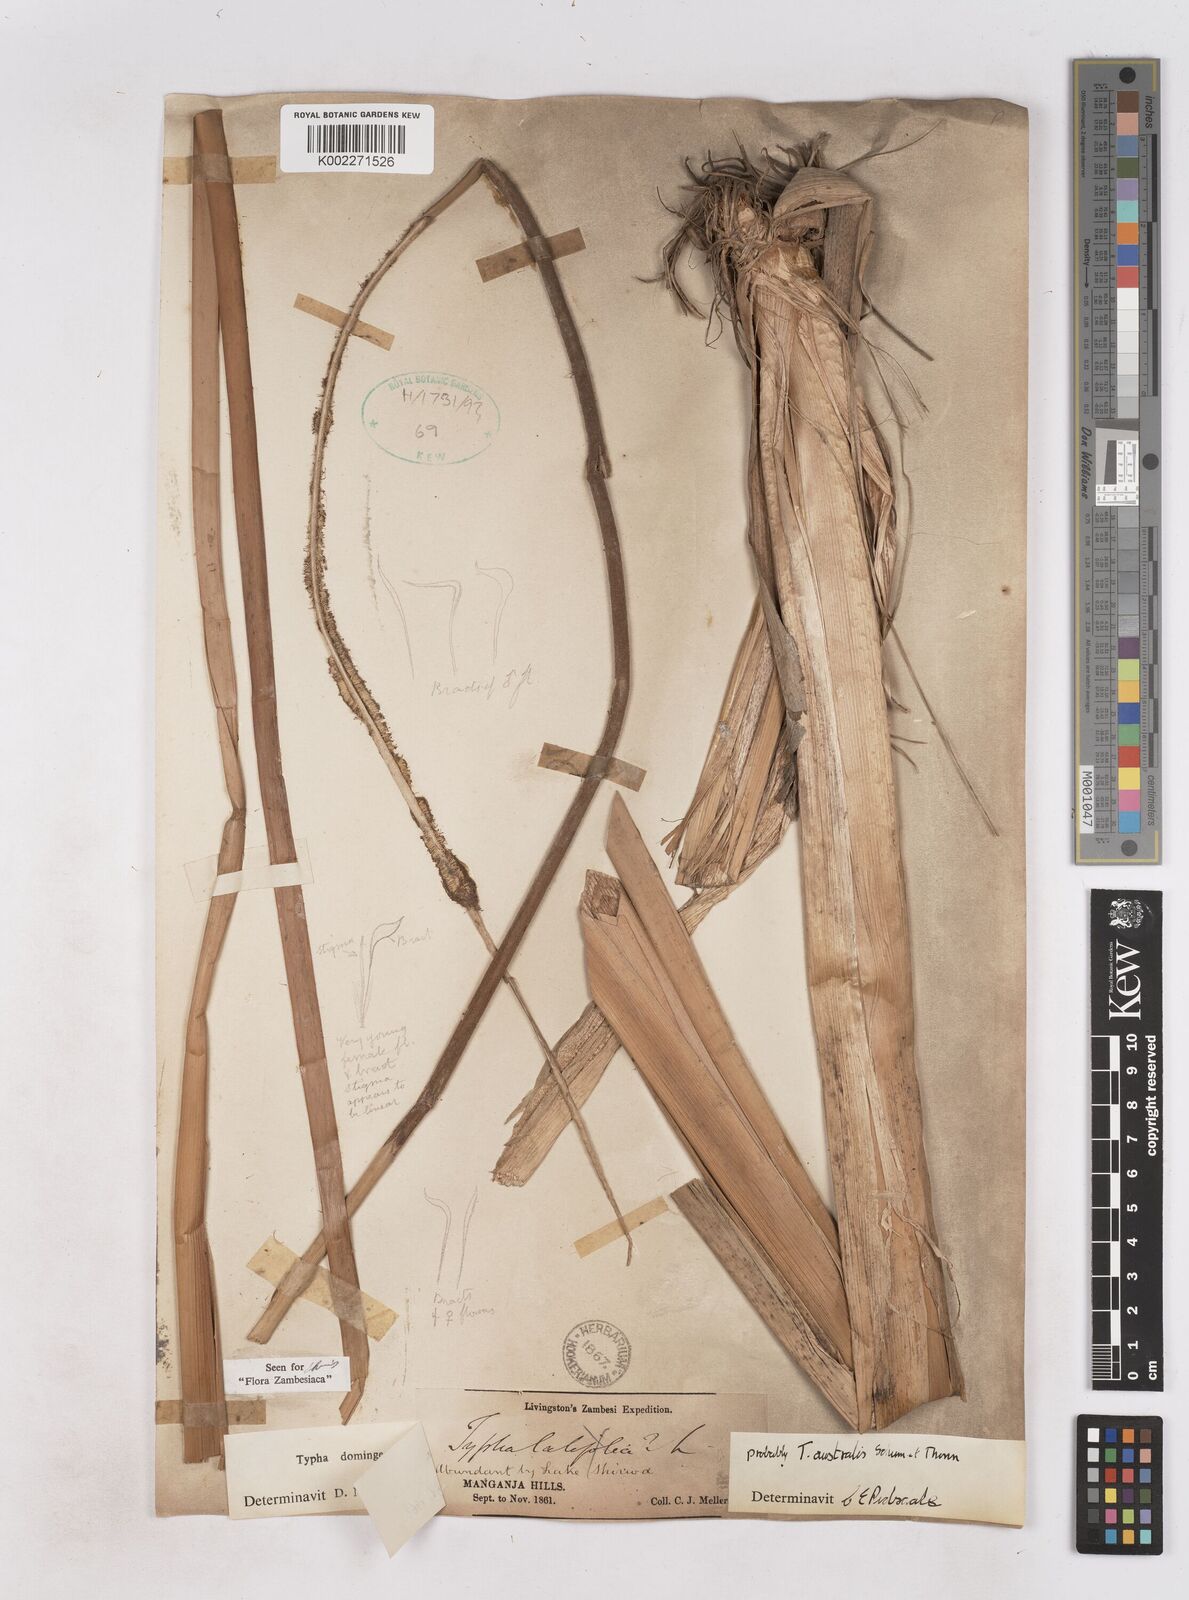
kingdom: Plantae
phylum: Tracheophyta
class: Liliopsida
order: Poales
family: Typhaceae
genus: Typha
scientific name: Typha domingensis
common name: Southern cattail
